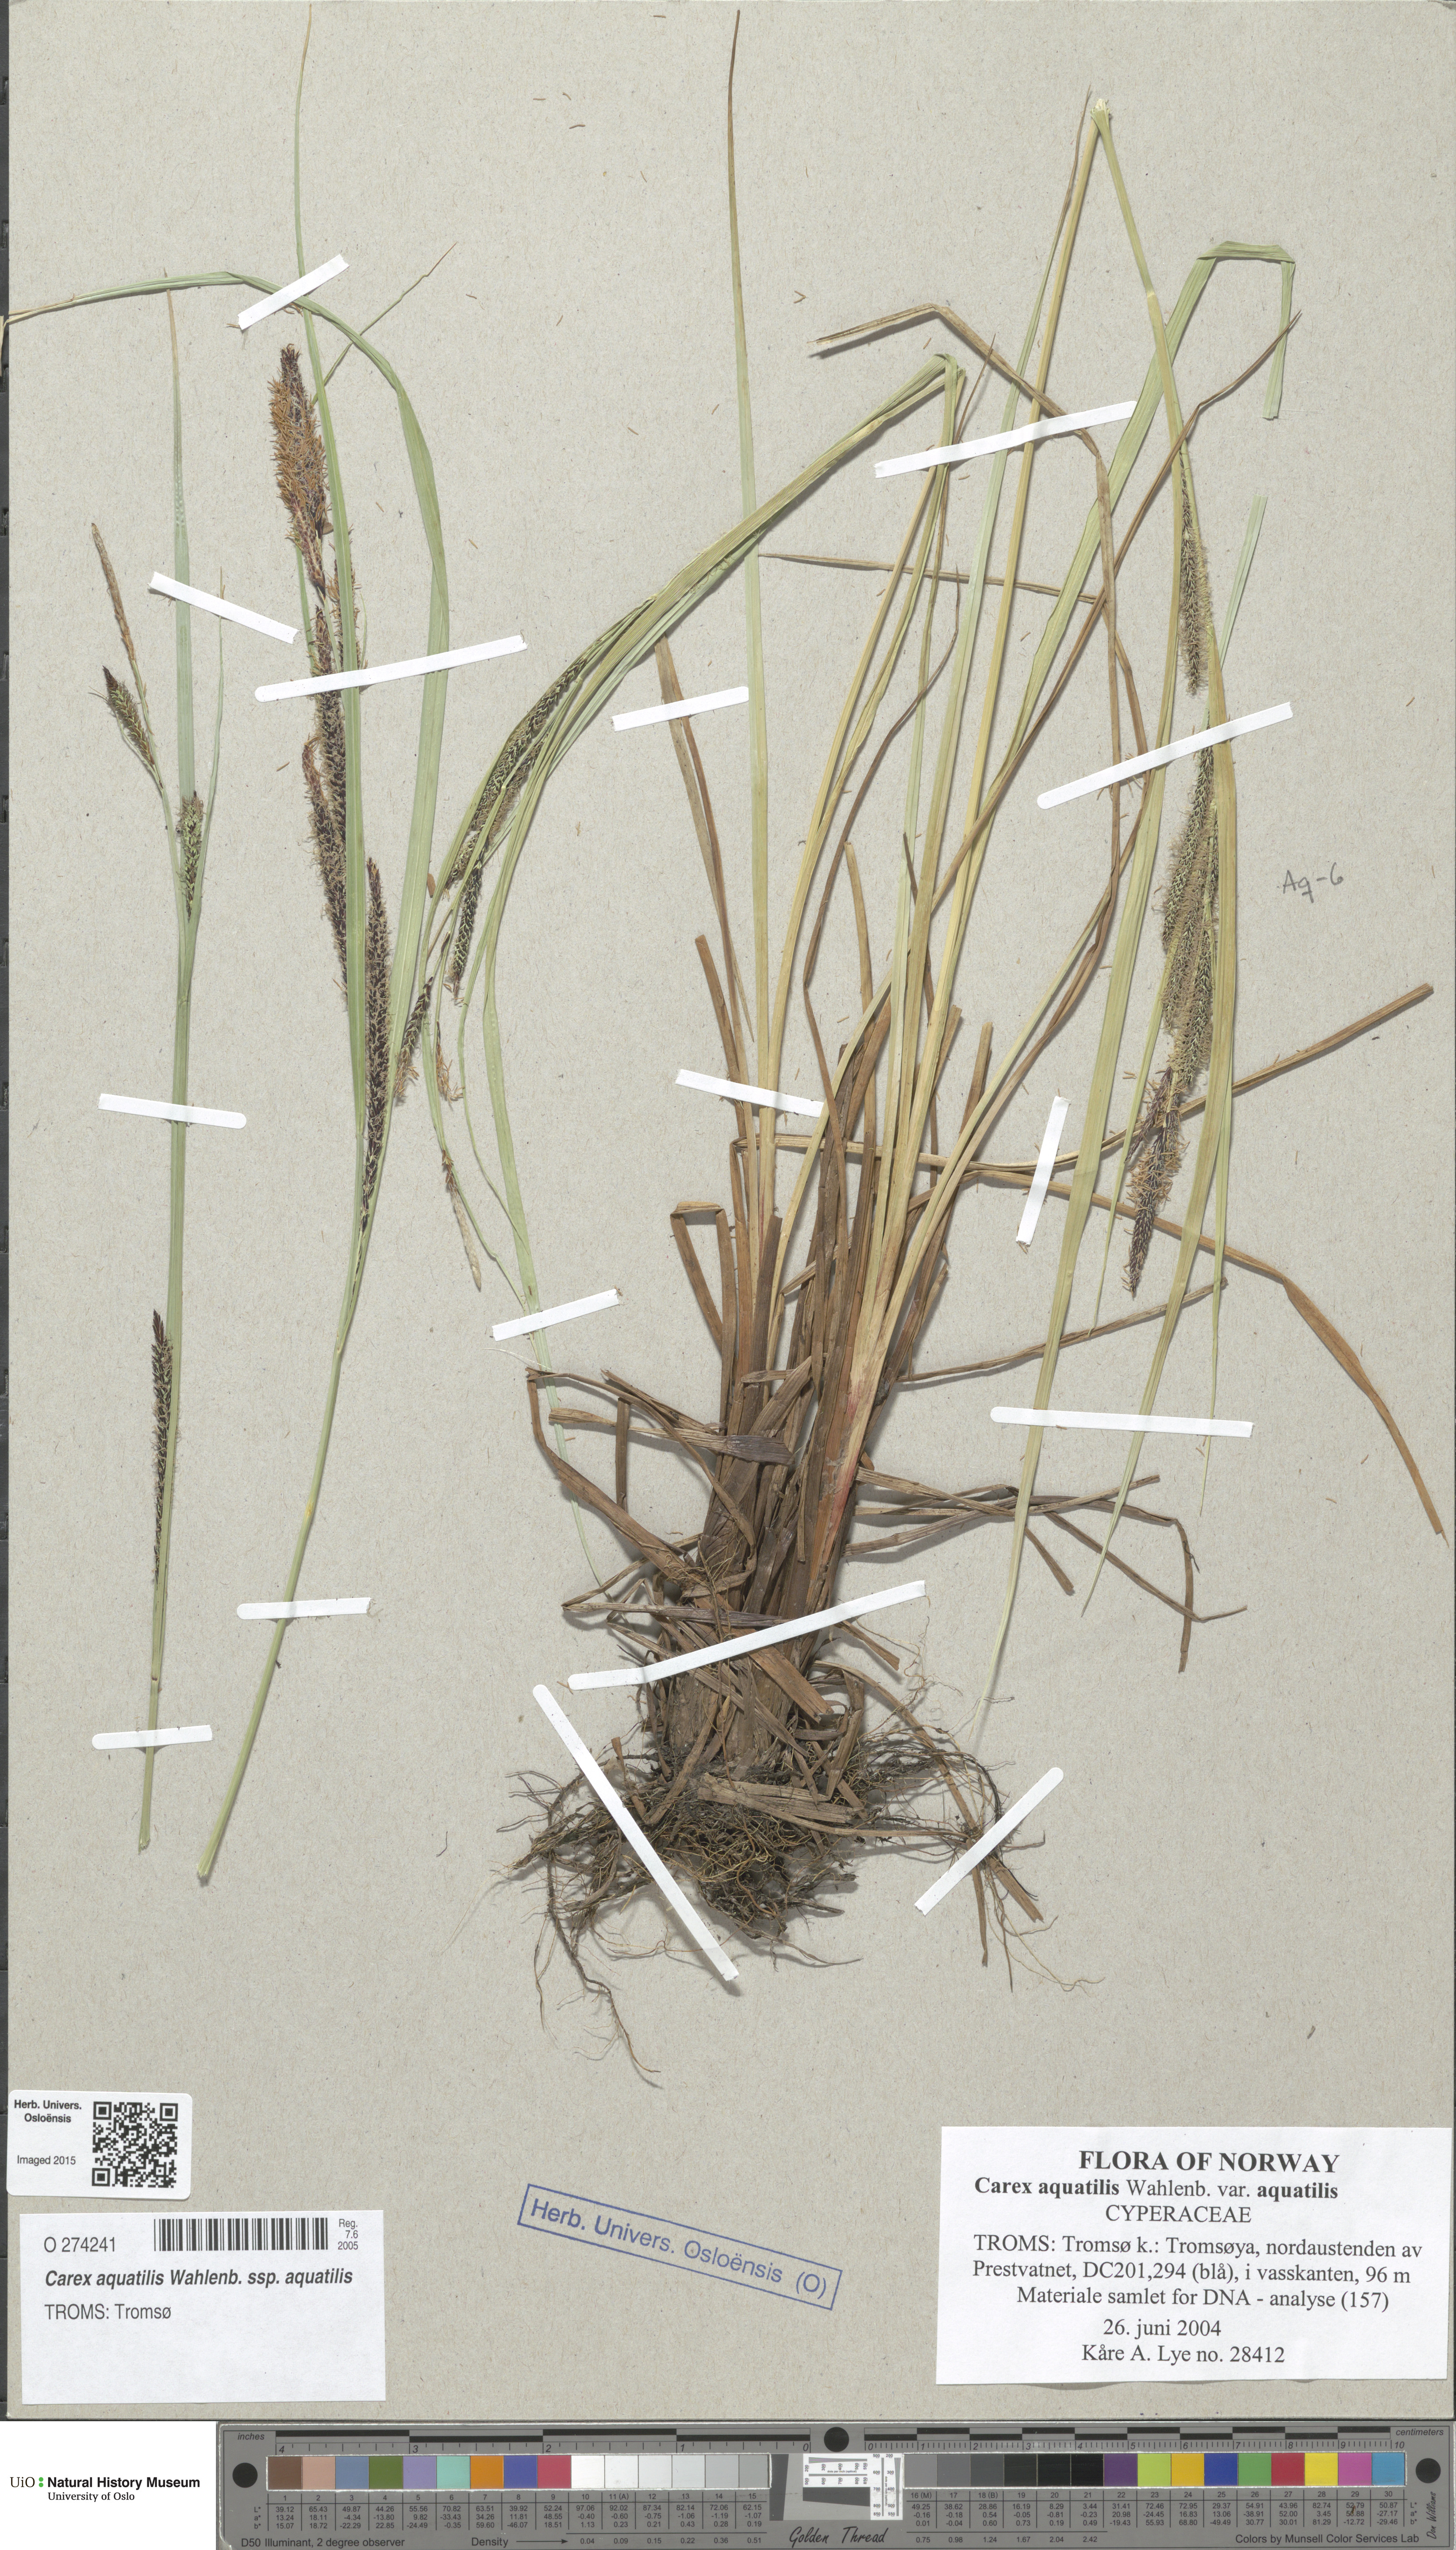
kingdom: Plantae
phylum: Tracheophyta
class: Liliopsida
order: Poales
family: Cyperaceae
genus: Carex
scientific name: Carex aquatilis
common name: Water sedge
